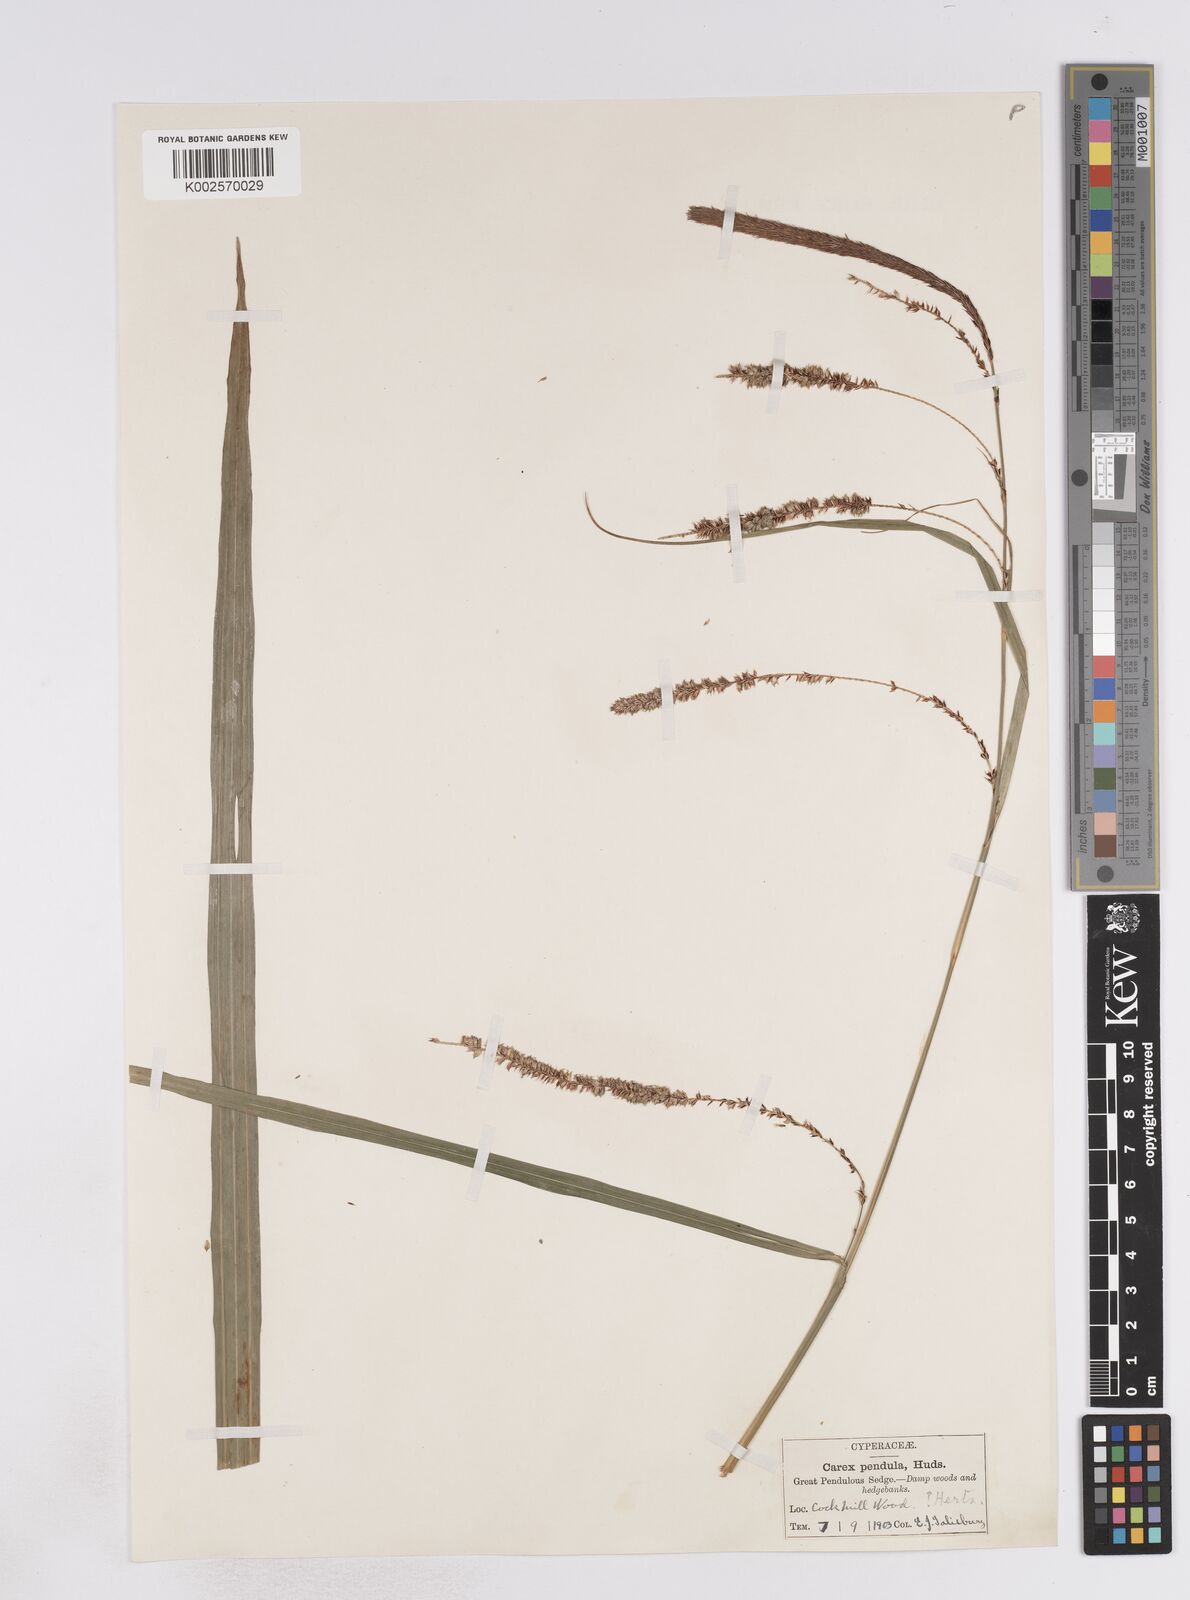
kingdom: Plantae
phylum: Tracheophyta
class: Liliopsida
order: Poales
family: Cyperaceae
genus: Carex
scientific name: Carex pendula
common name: Pendulous sedge
